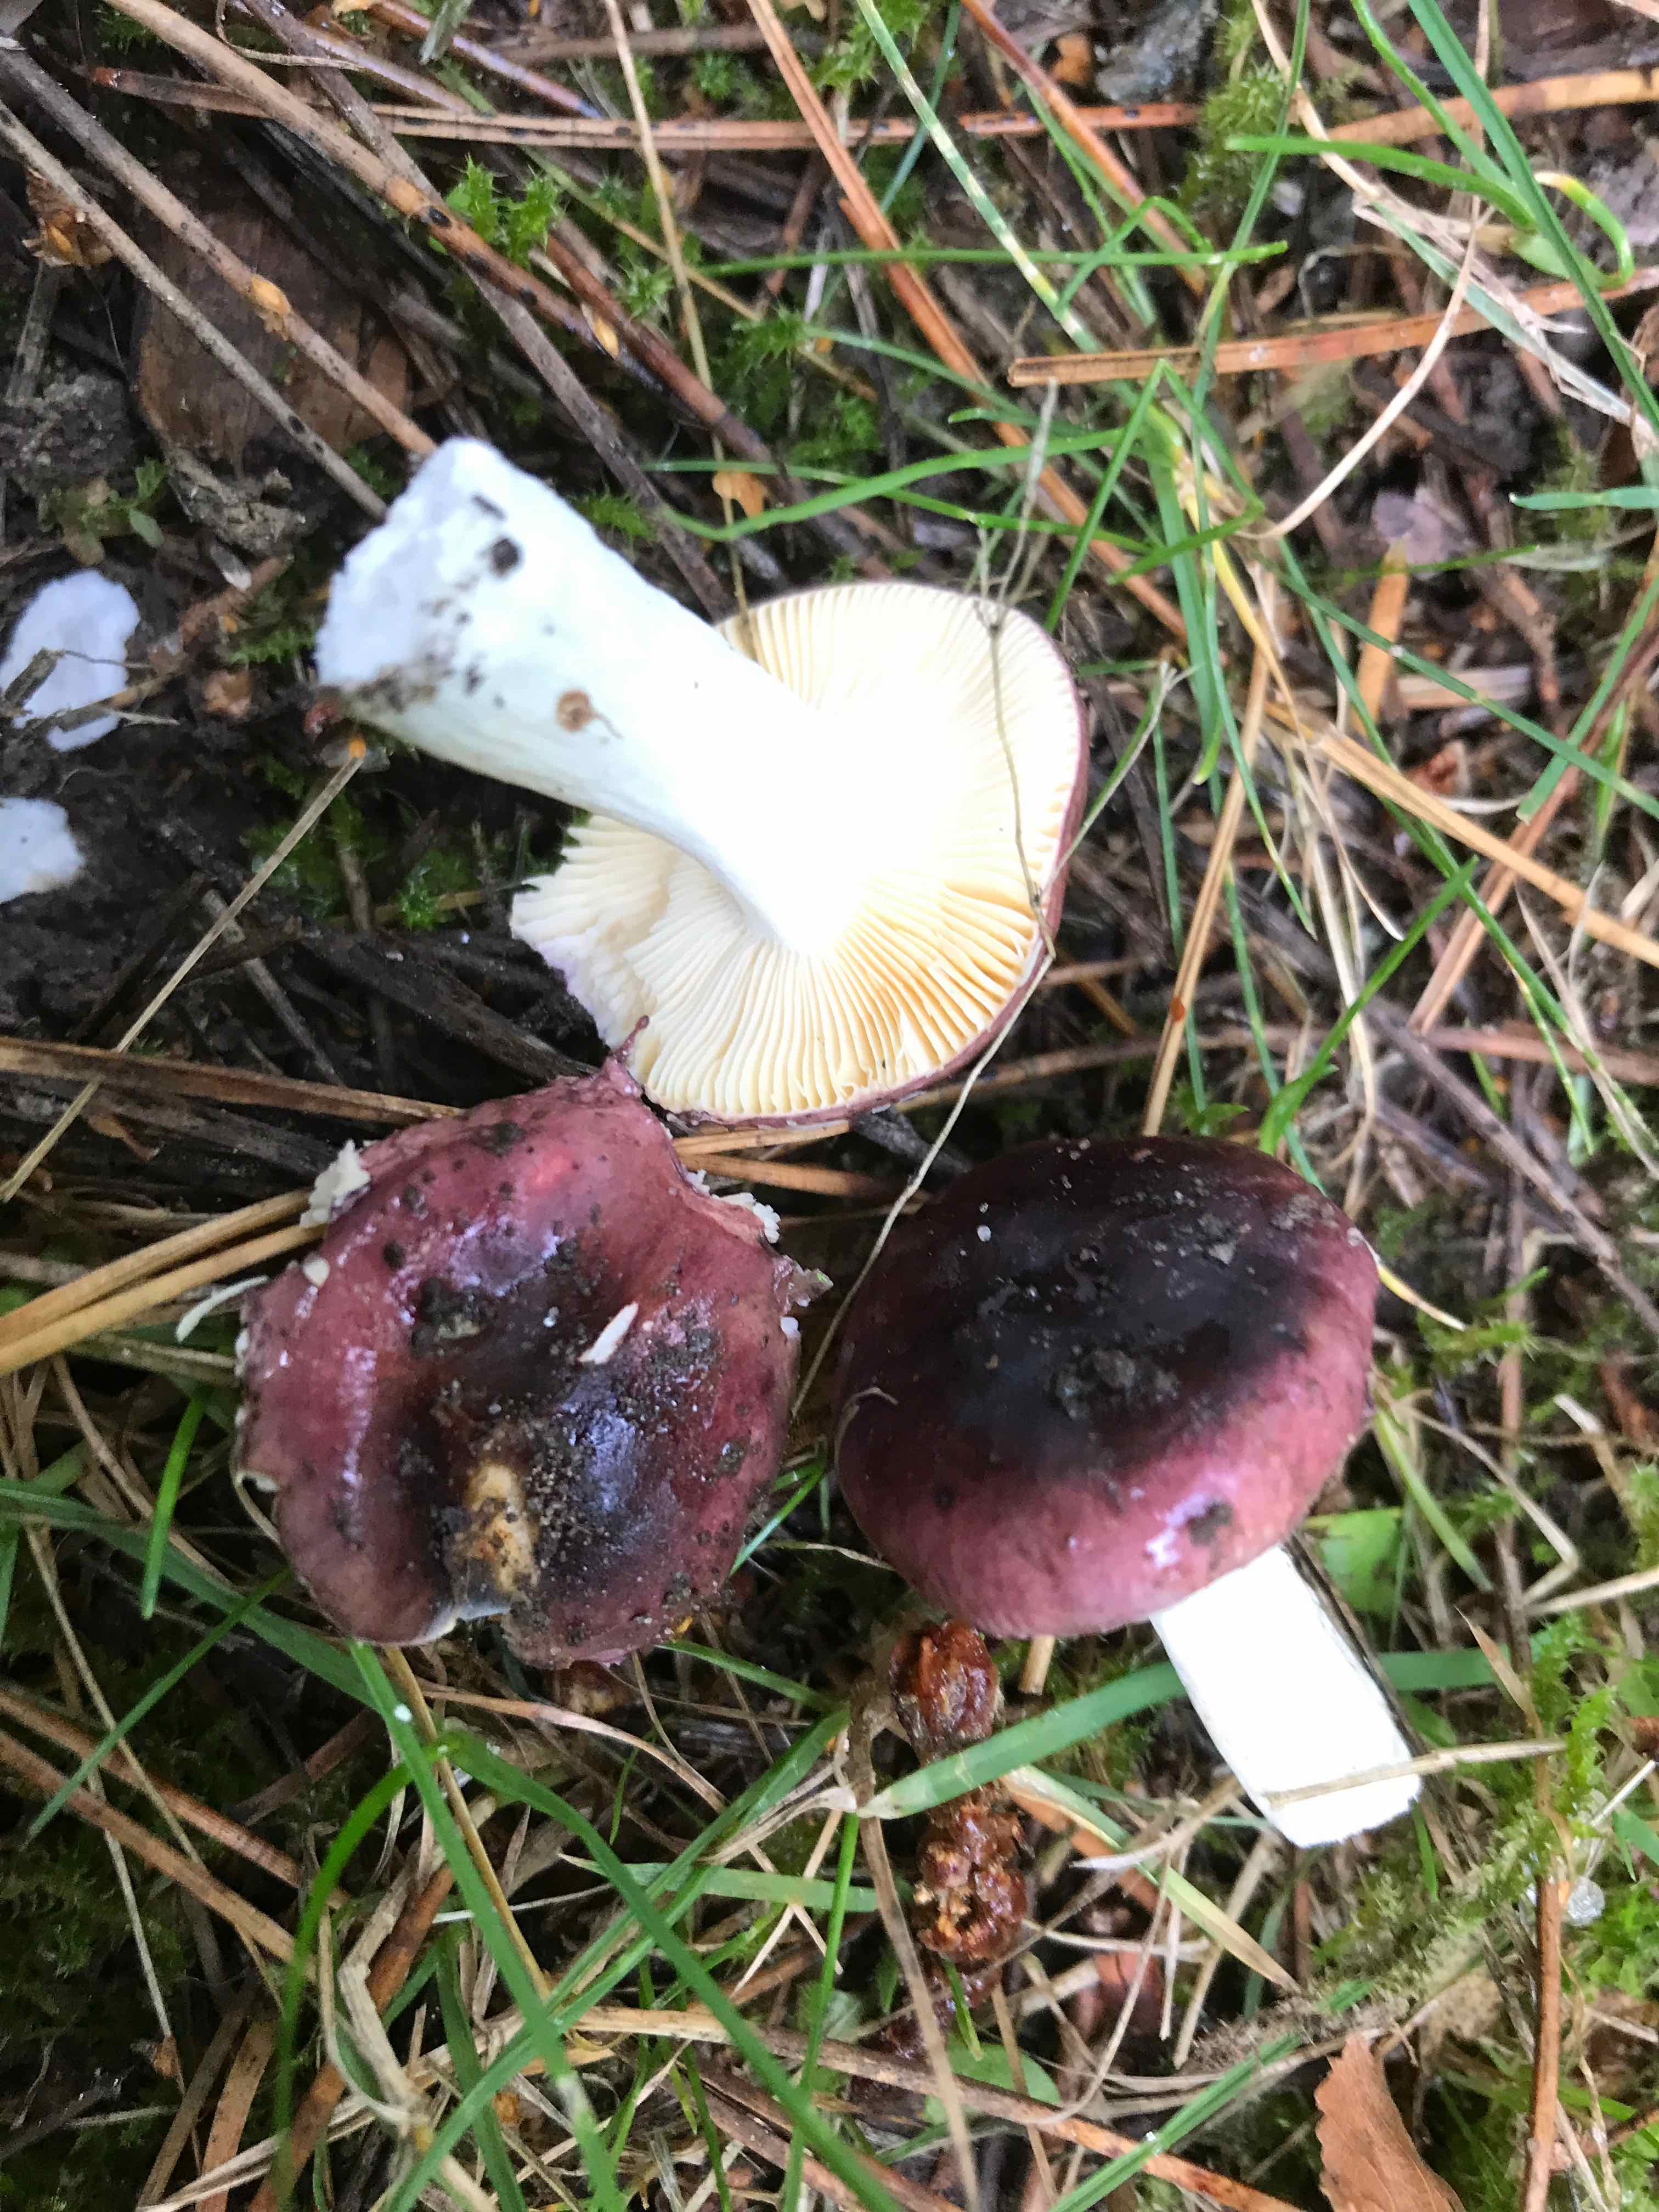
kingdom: Fungi
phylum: Basidiomycota
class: Agaricomycetes
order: Russulales
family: Russulaceae
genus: Russula
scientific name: Russula
